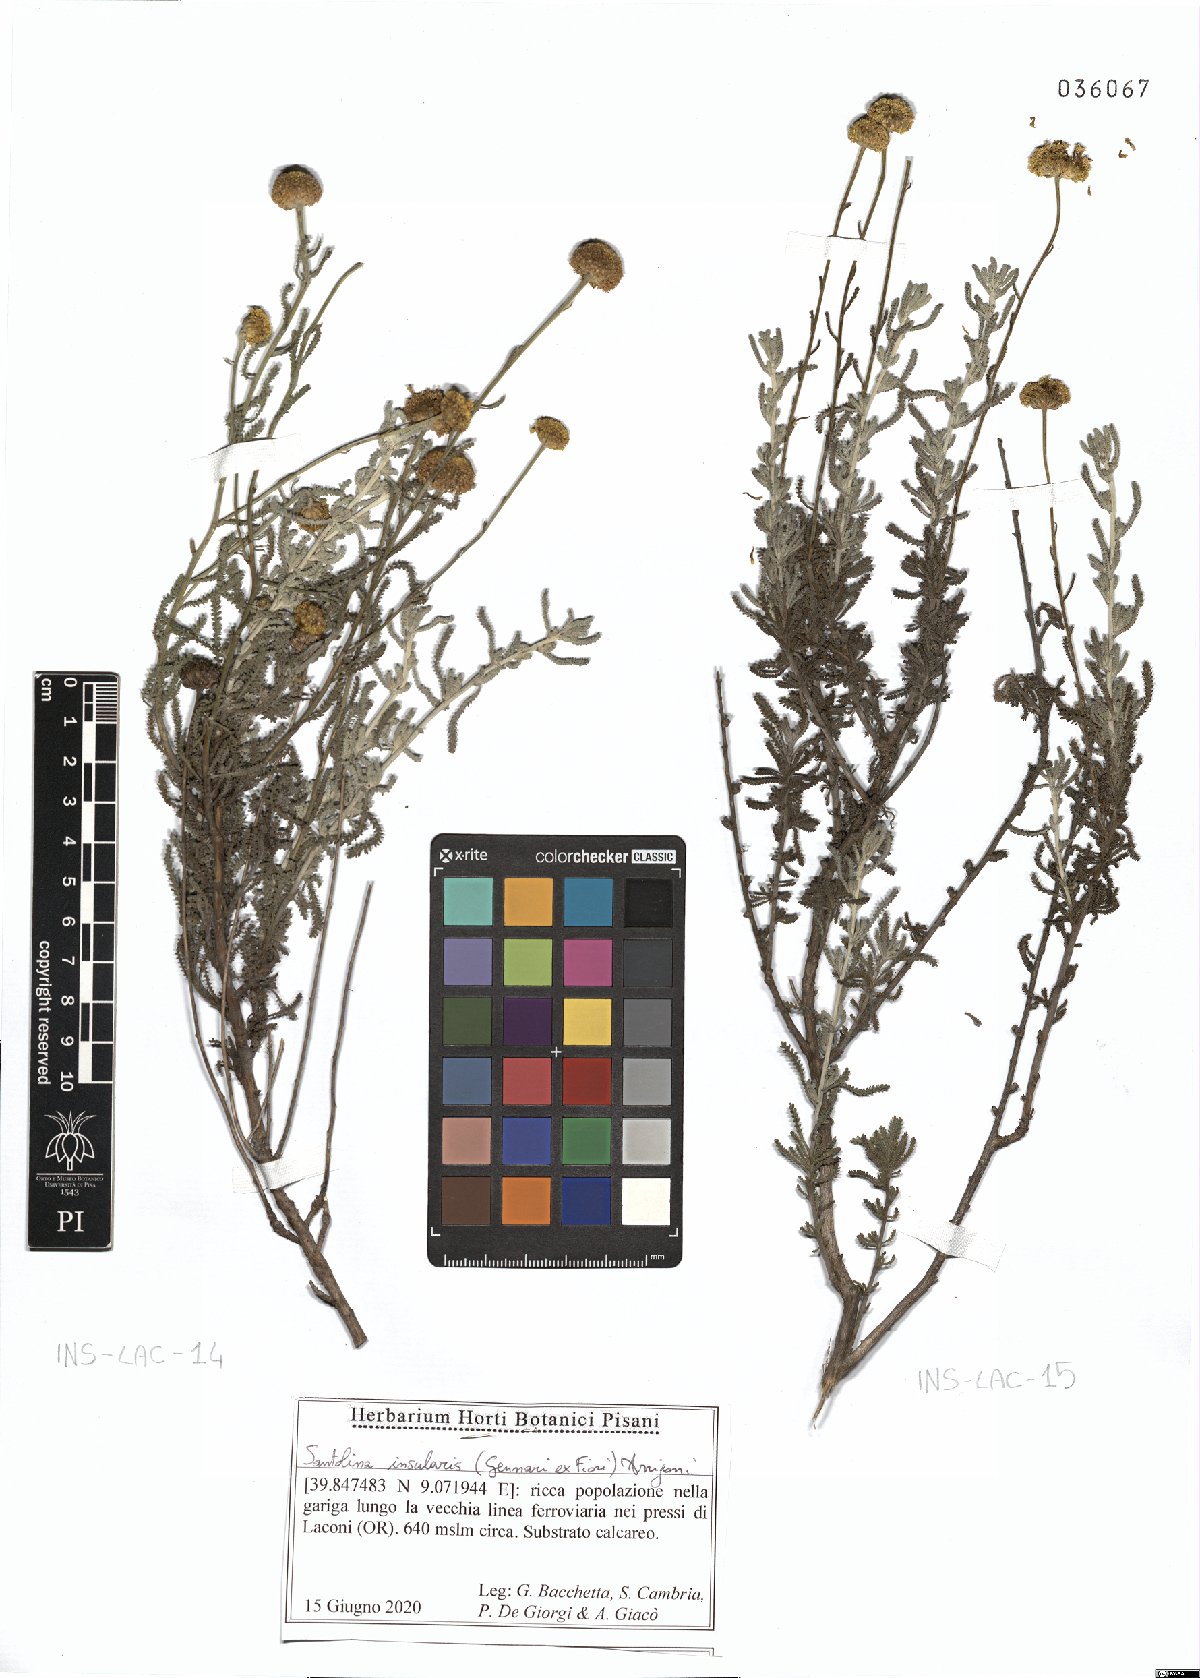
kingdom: Plantae
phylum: Tracheophyta
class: Magnoliopsida
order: Asterales
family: Asteraceae
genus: Santolina
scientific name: Santolina insularis
